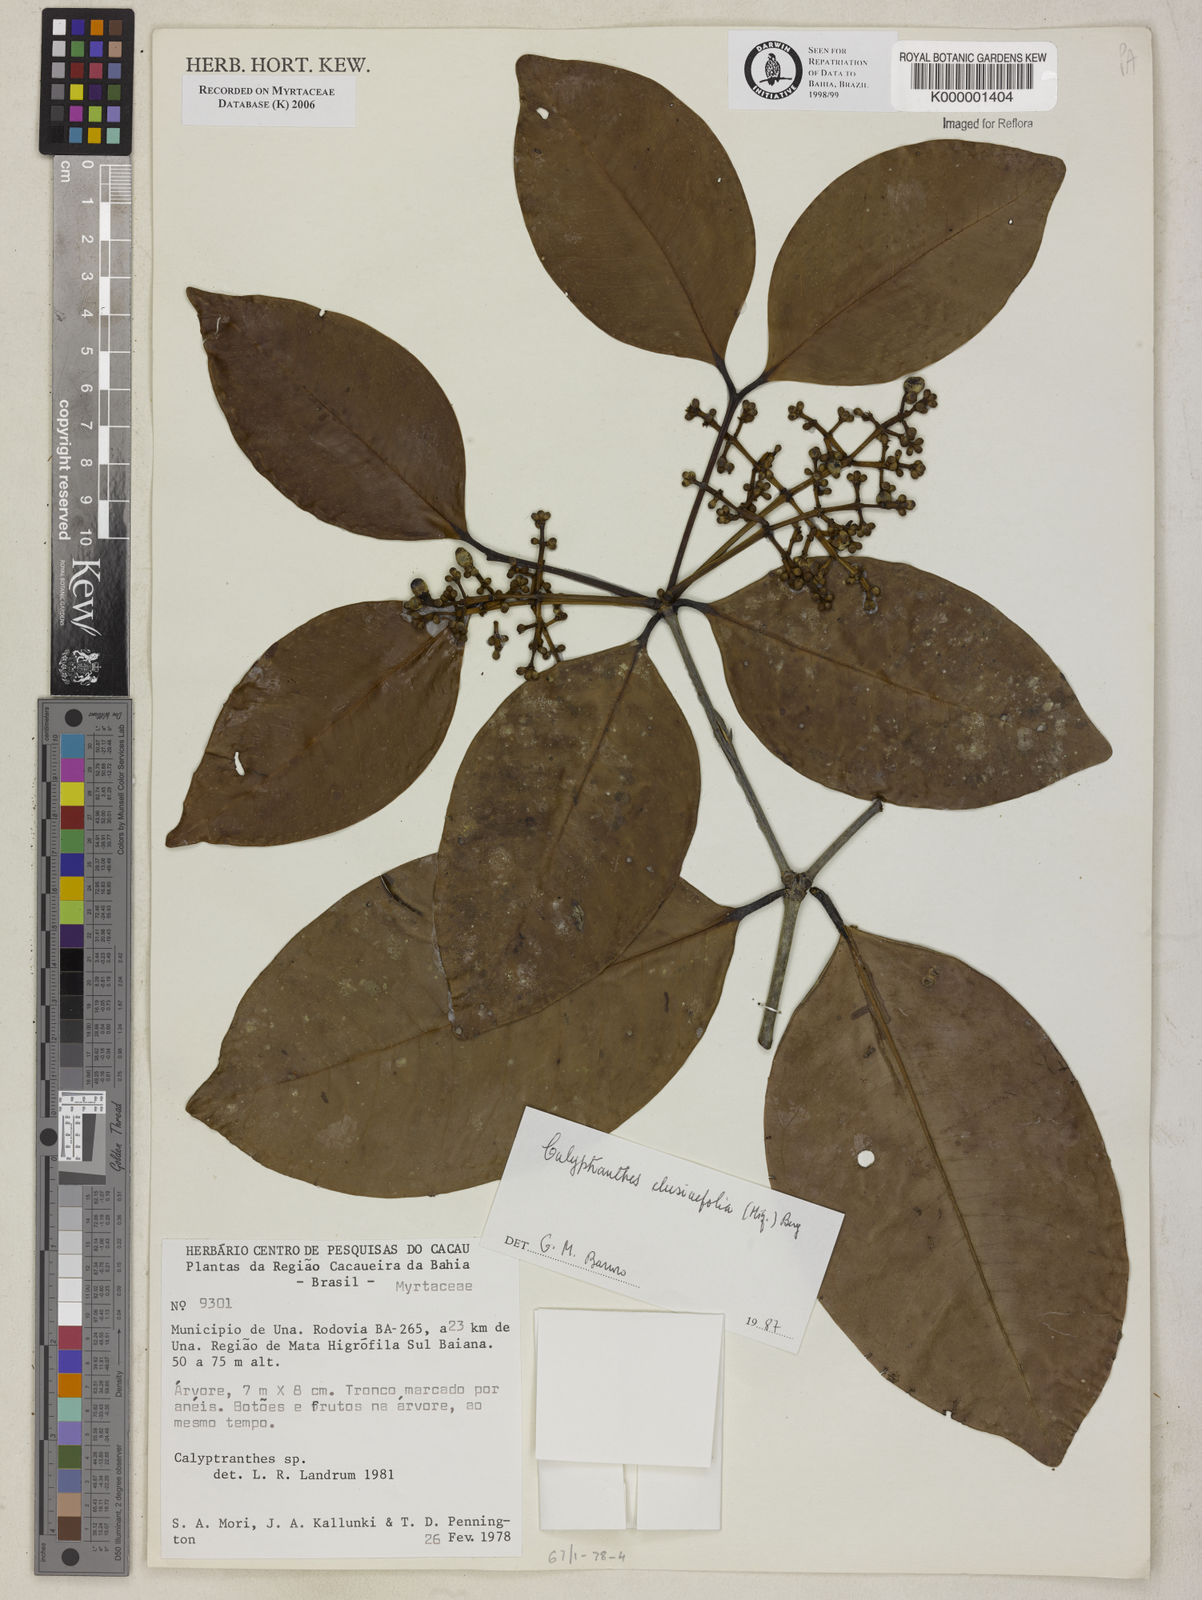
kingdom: Plantae
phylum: Tracheophyta
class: Magnoliopsida
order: Myrtales
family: Myrtaceae
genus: Myrcia
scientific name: Myrcia neoclusiifolia
